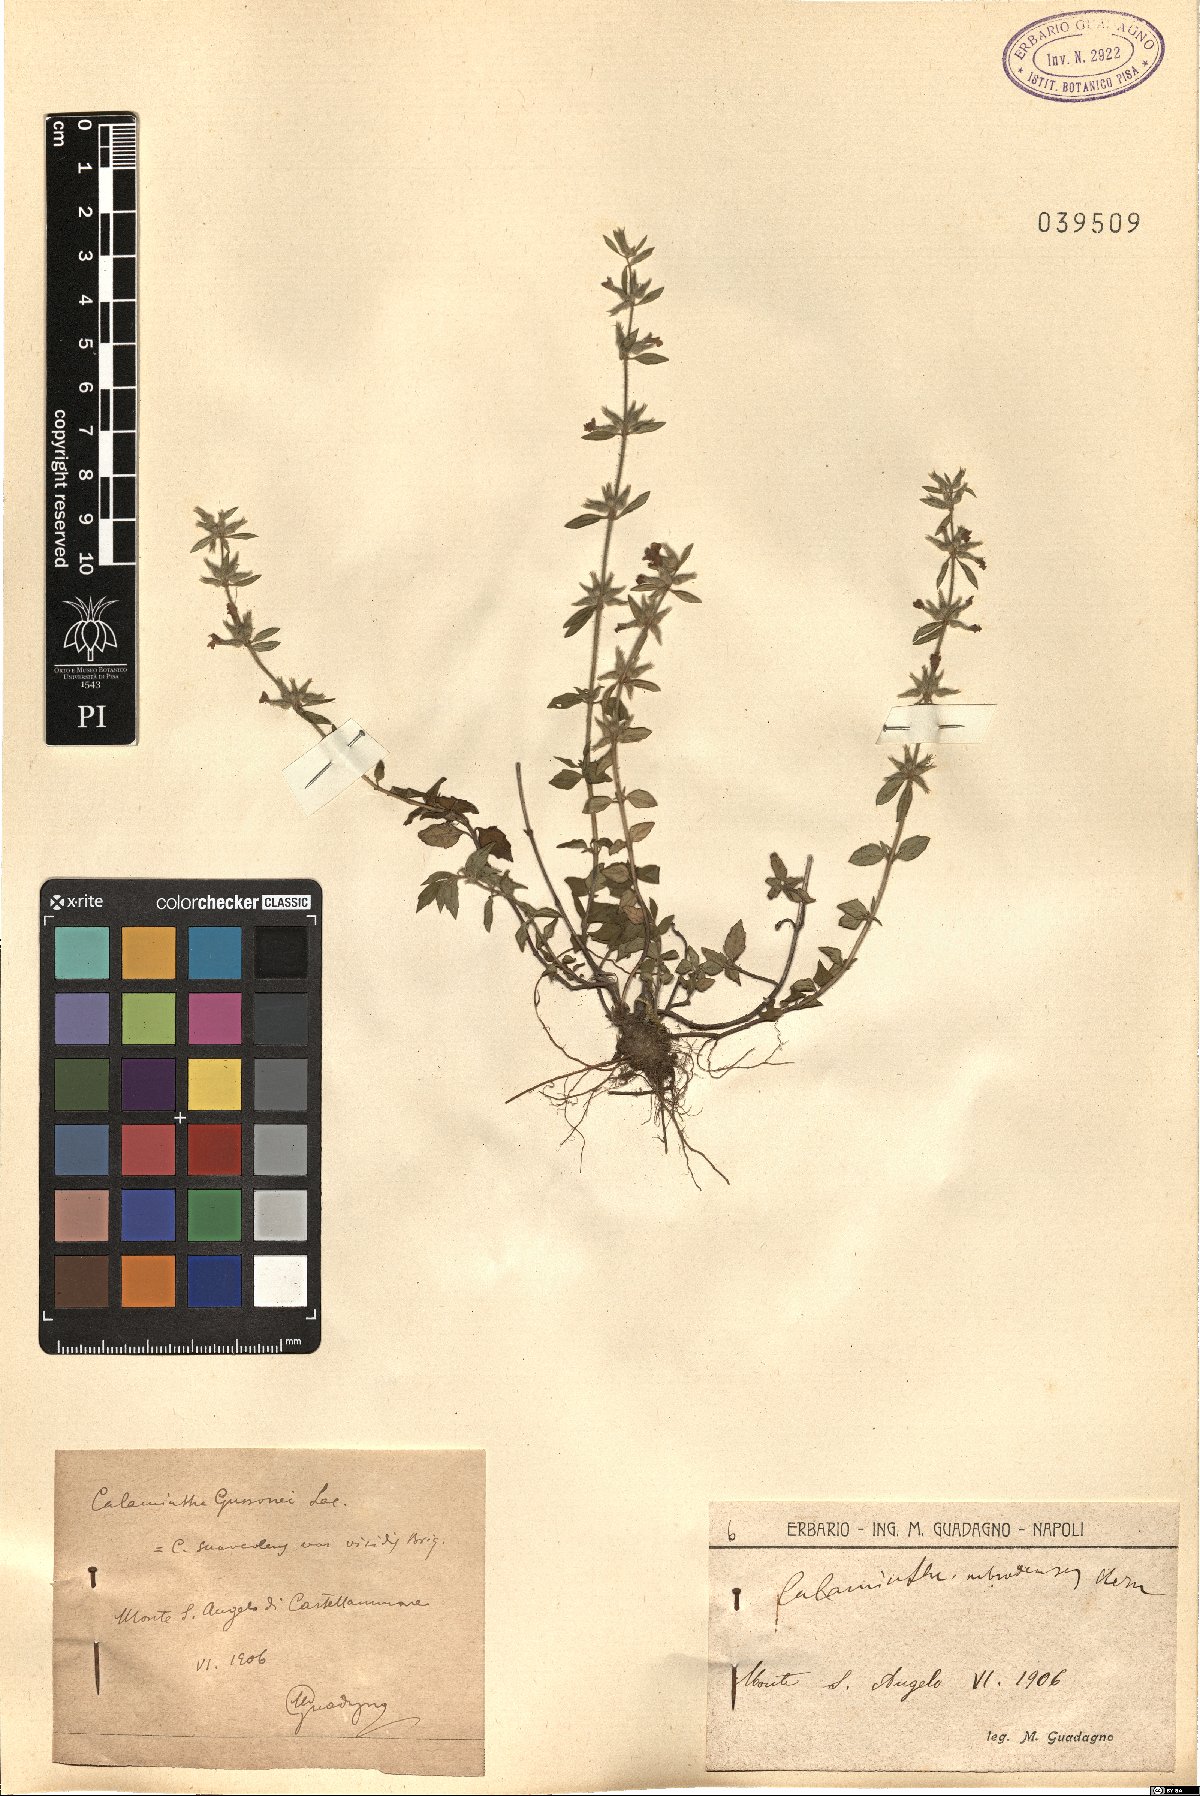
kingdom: Plantae
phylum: Tracheophyta
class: Magnoliopsida
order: Lamiales
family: Lamiaceae
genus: Clinopodium
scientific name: Clinopodium suaveolens
